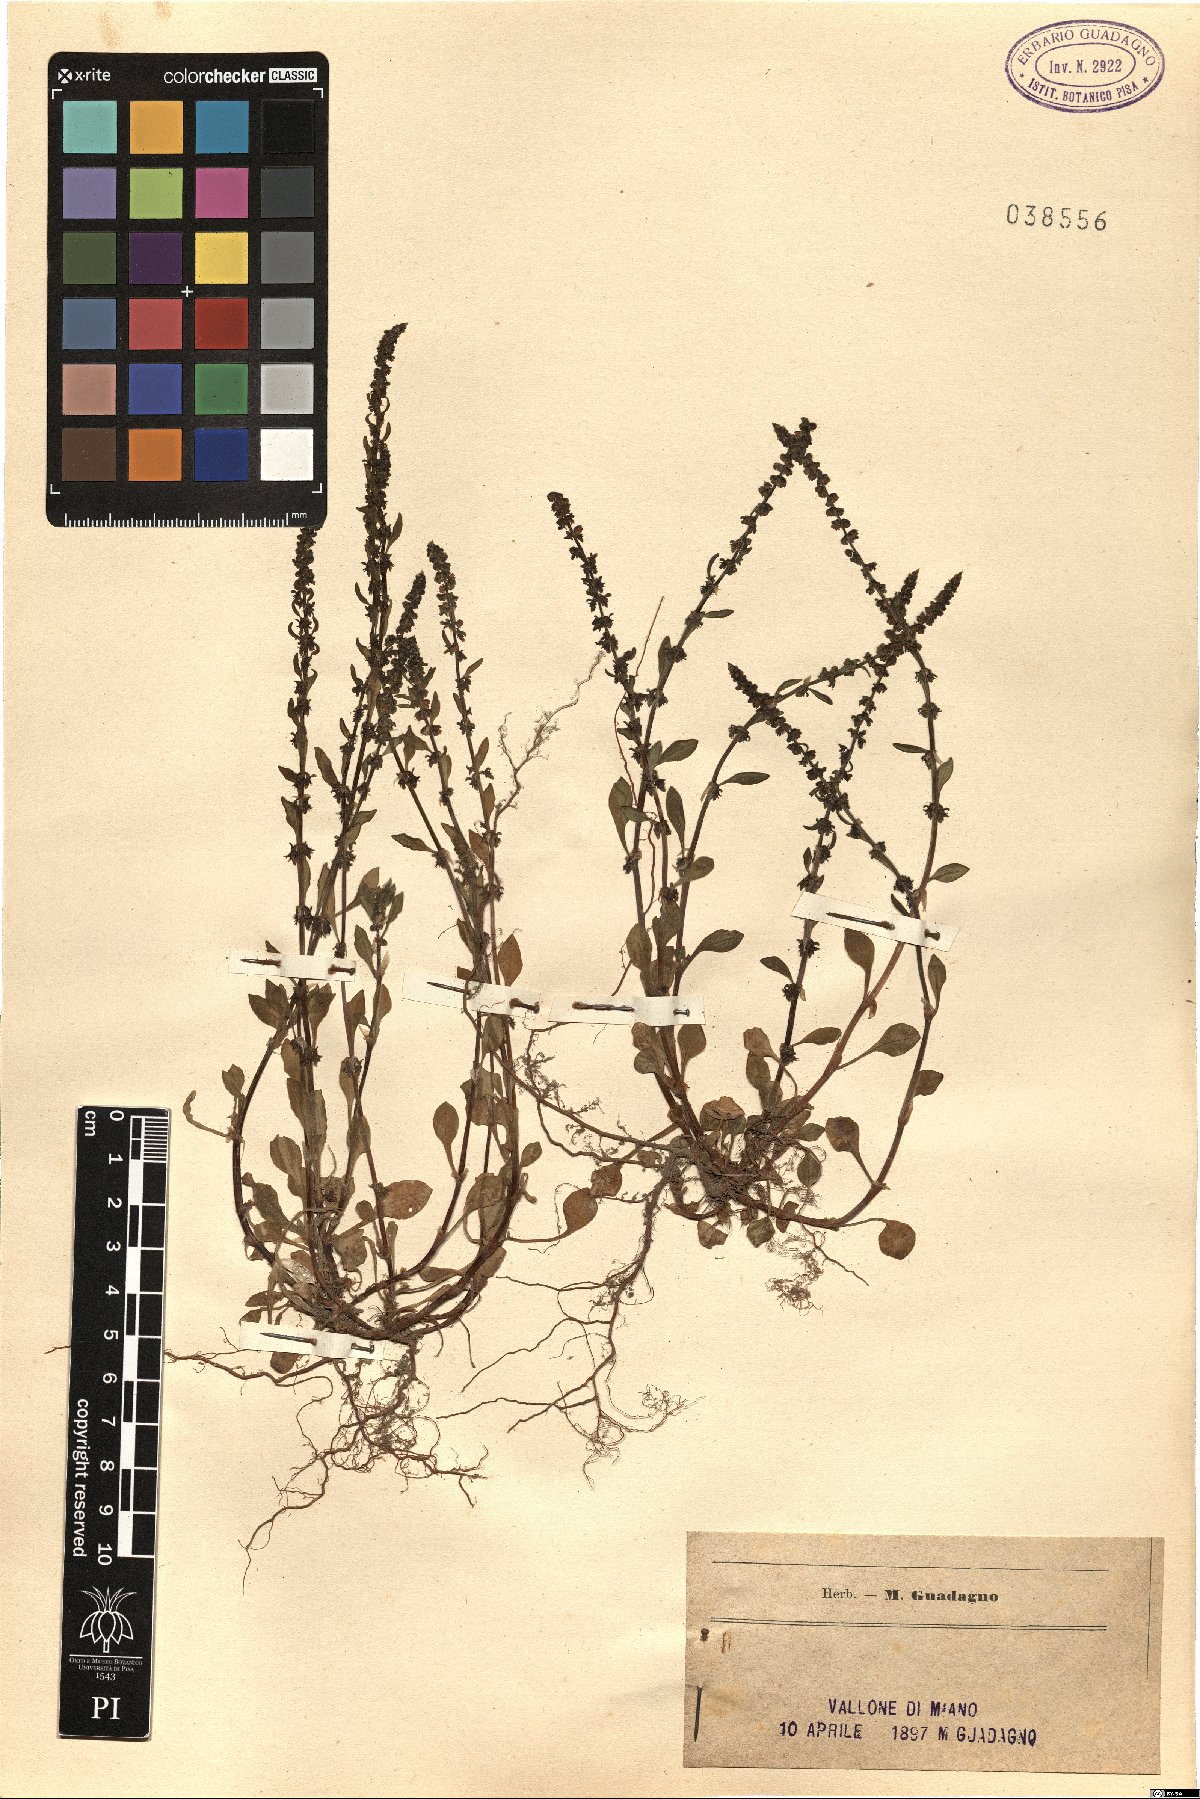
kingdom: Plantae
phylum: Tracheophyta
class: Magnoliopsida
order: Caryophyllales
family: Polygonaceae
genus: Rumex
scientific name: Rumex
